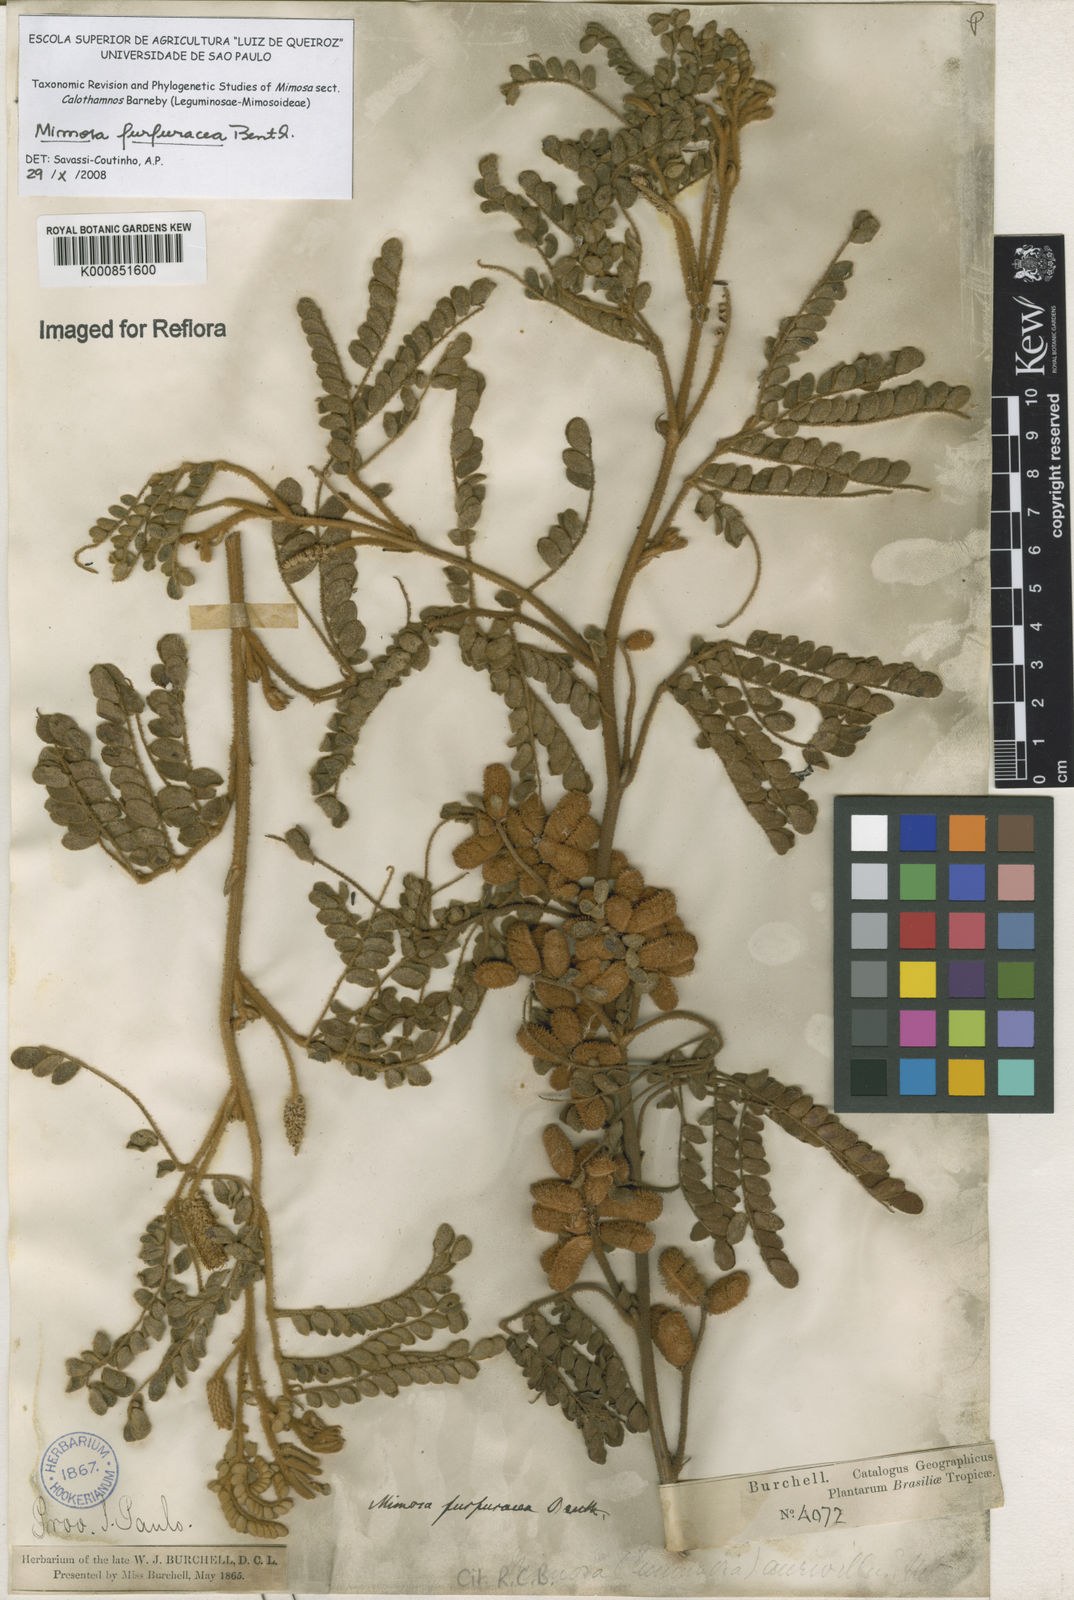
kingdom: Plantae
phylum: Tracheophyta
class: Magnoliopsida
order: Fabales
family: Fabaceae
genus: Mimosa
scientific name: Mimosa furfuracea
